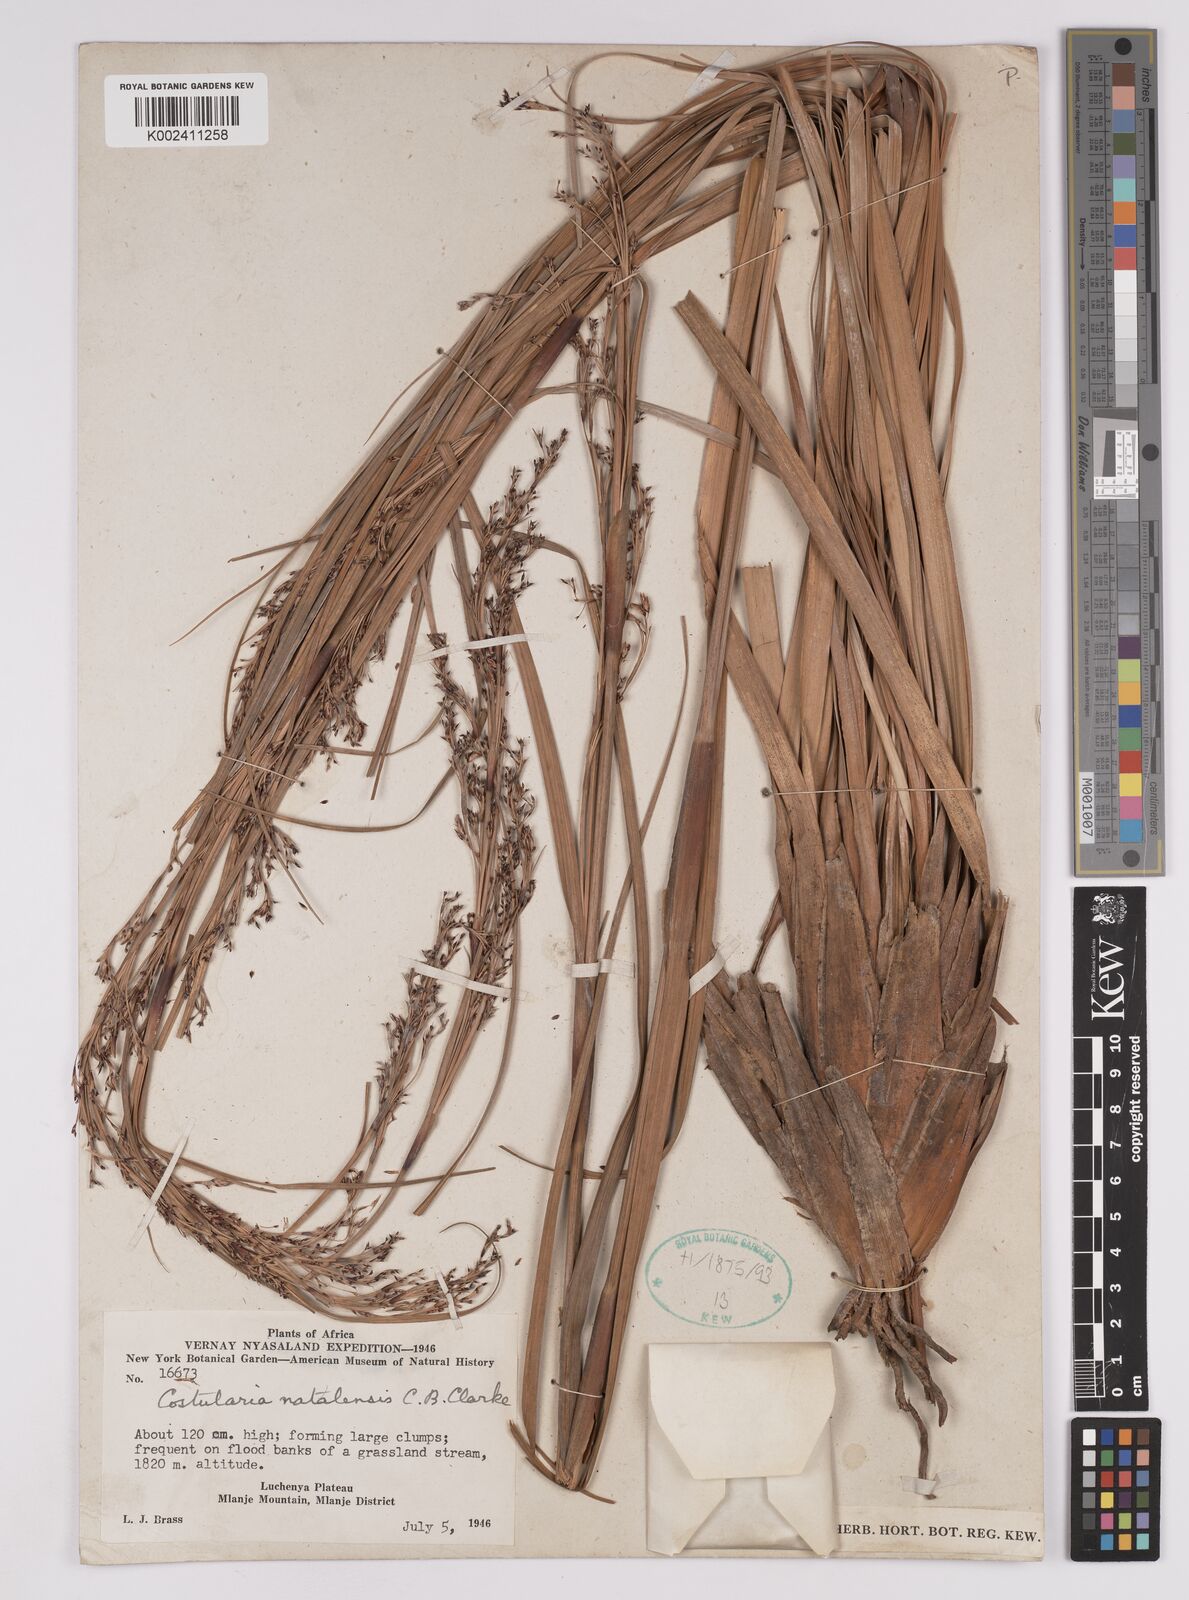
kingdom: Plantae
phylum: Tracheophyta
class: Liliopsida
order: Poales
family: Cyperaceae
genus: Costularia
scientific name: Costularia natalensis
